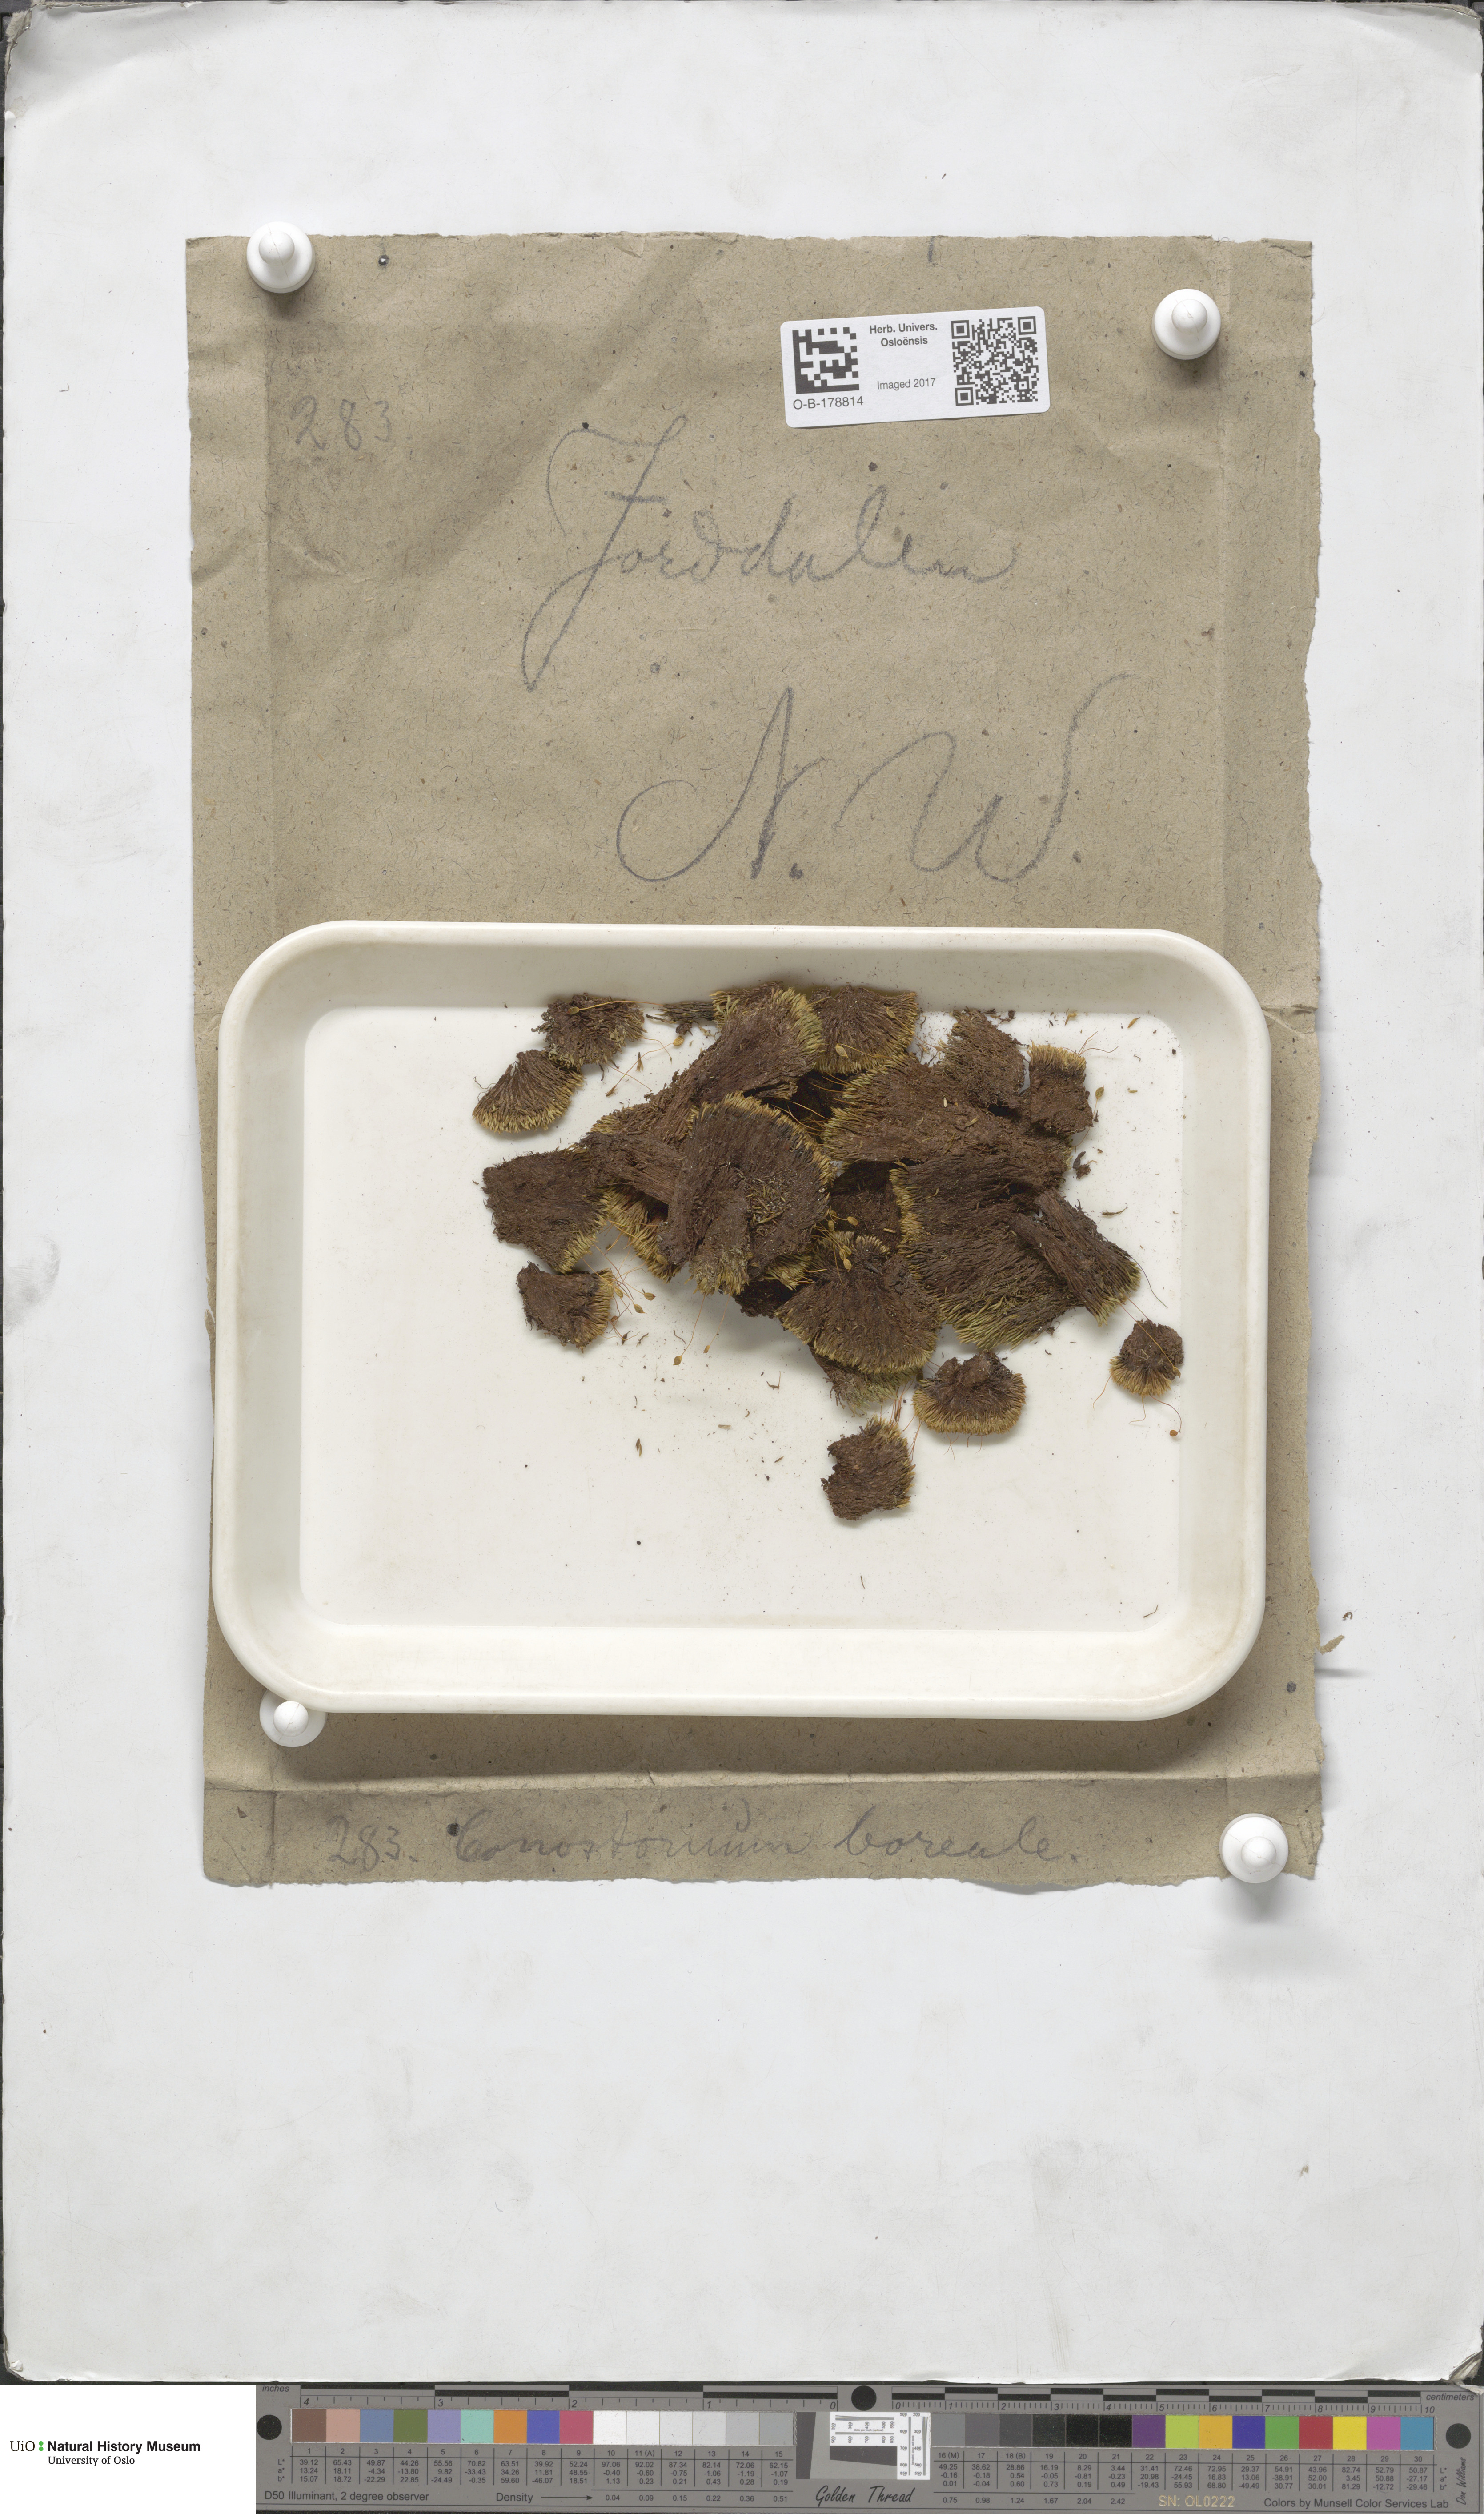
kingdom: Plantae
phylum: Bryophyta
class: Bryopsida
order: Bartramiales
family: Bartramiaceae
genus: Conostomum
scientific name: Conostomum tetragonum
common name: Helmet moss
